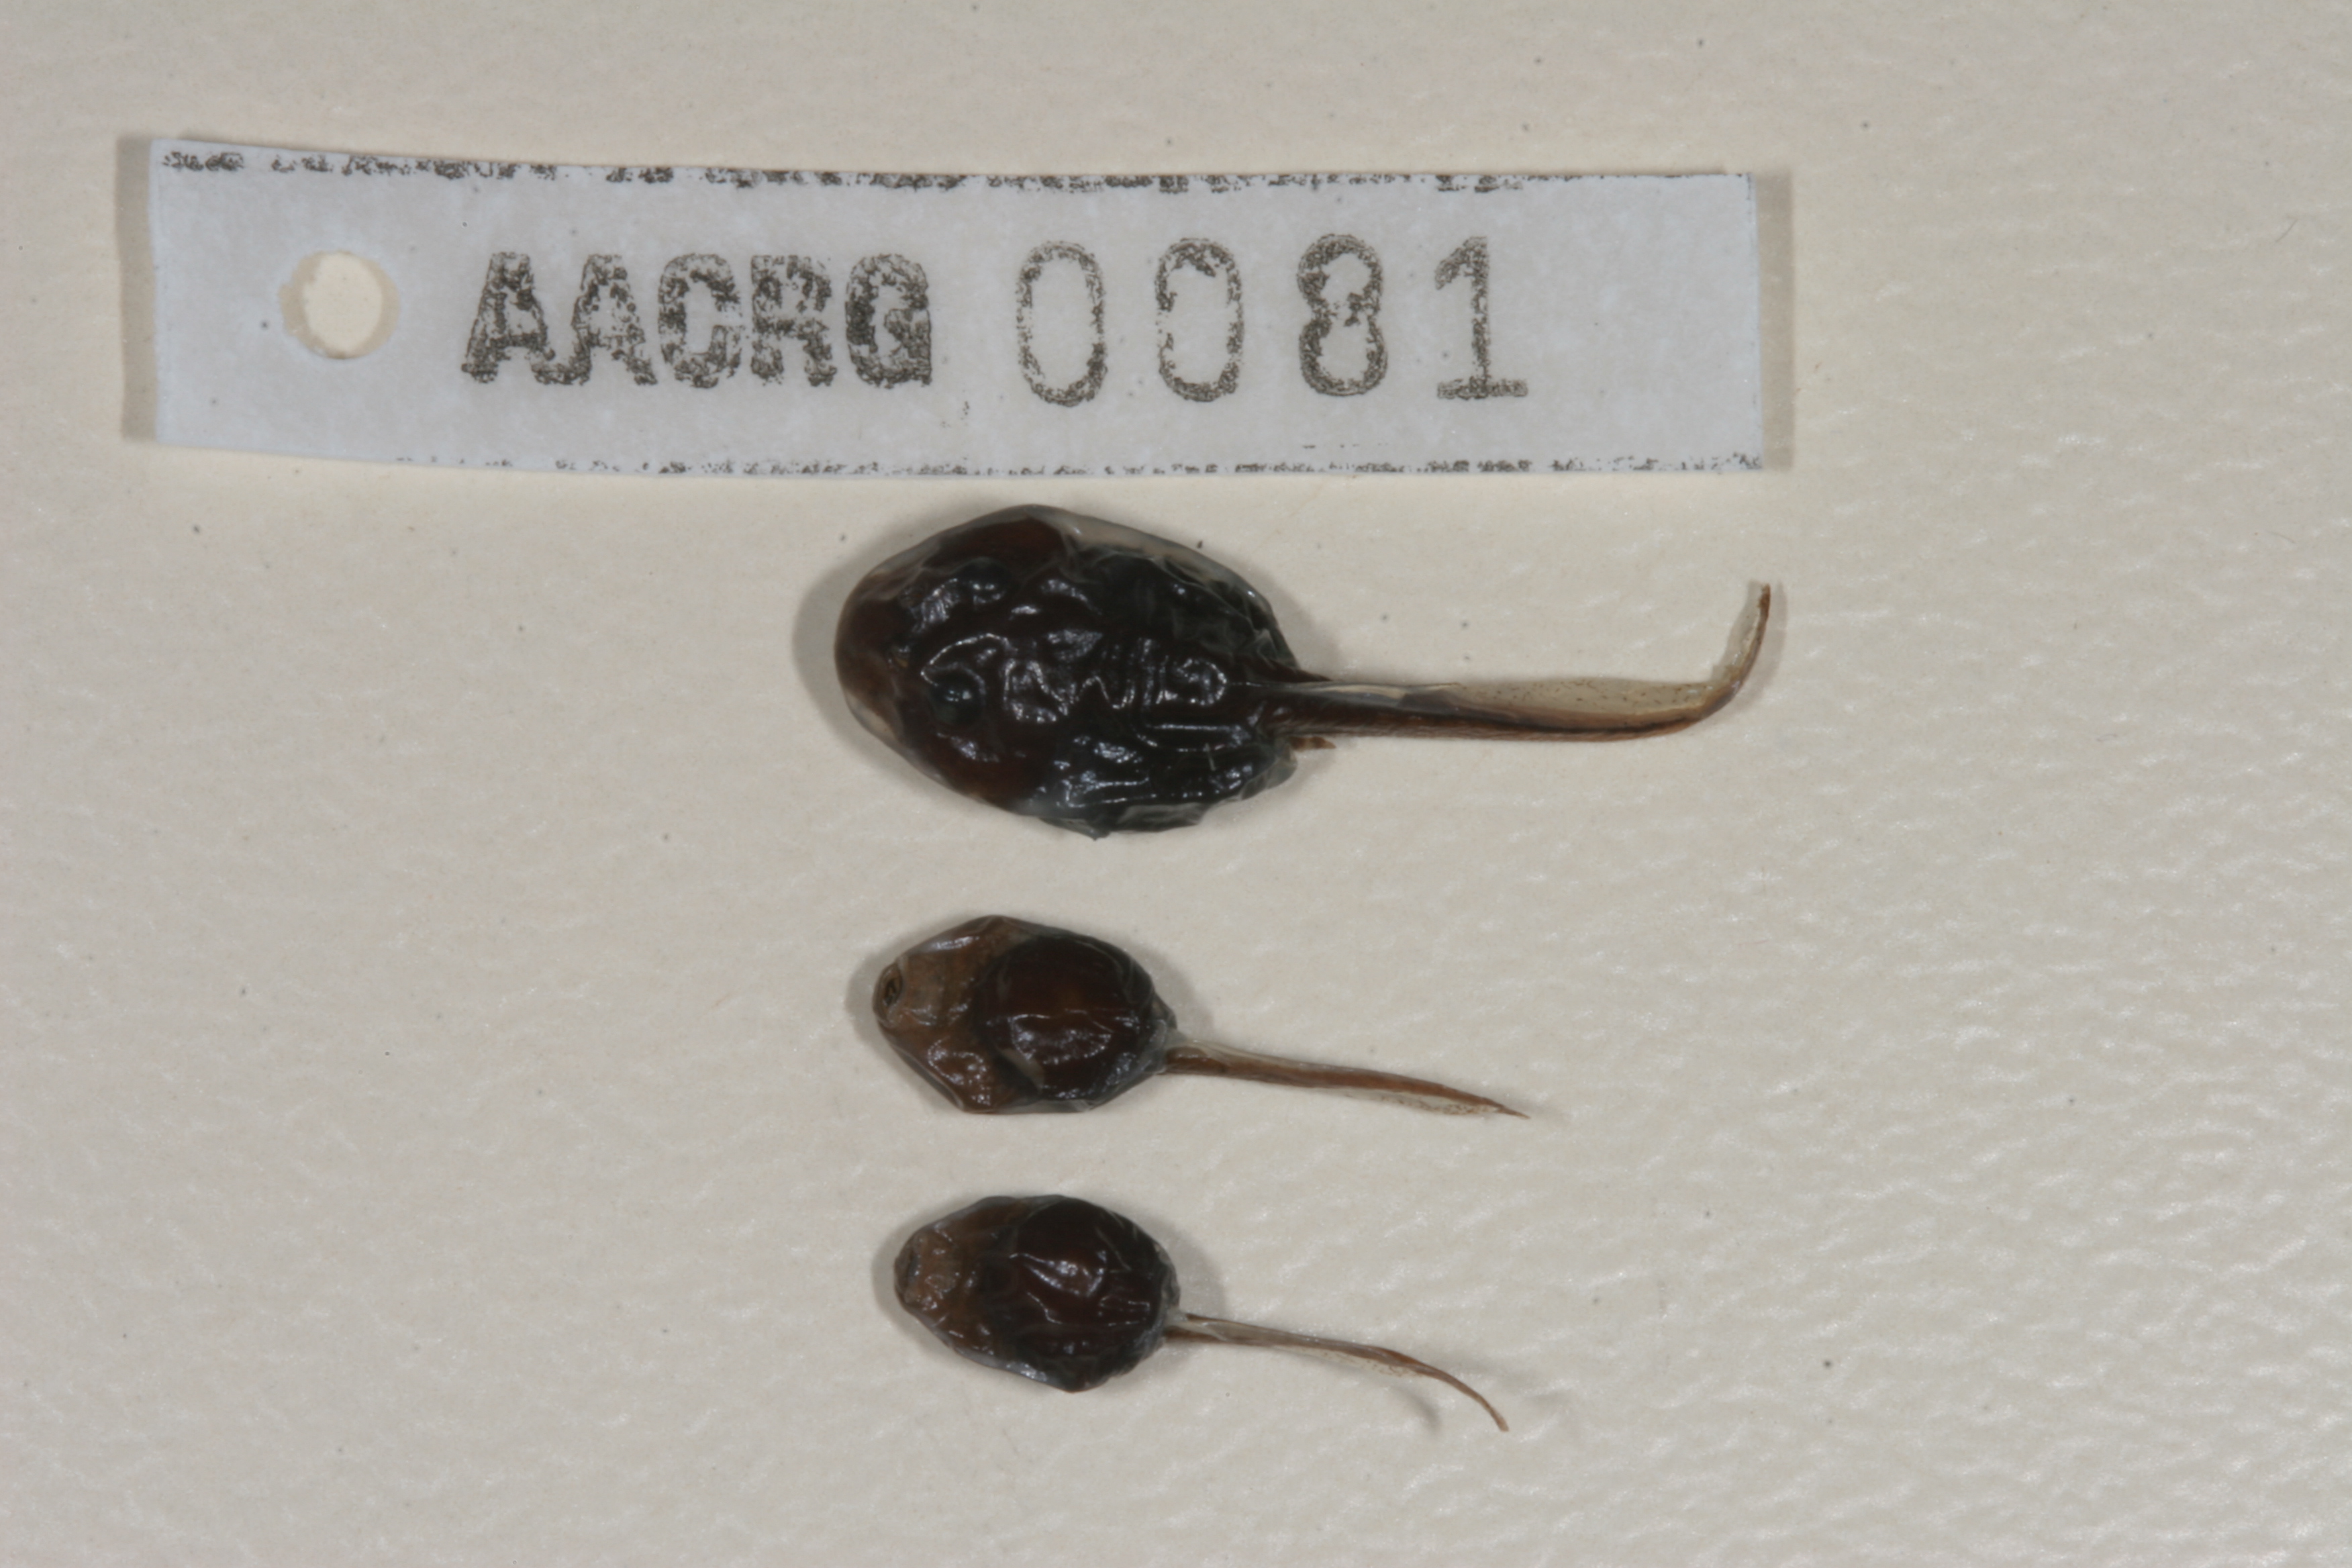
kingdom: Animalia
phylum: Chordata
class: Amphibia
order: Anura
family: Bufonidae
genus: Vandijkophrynus
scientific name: Vandijkophrynus gariepensis
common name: Gariep toad
